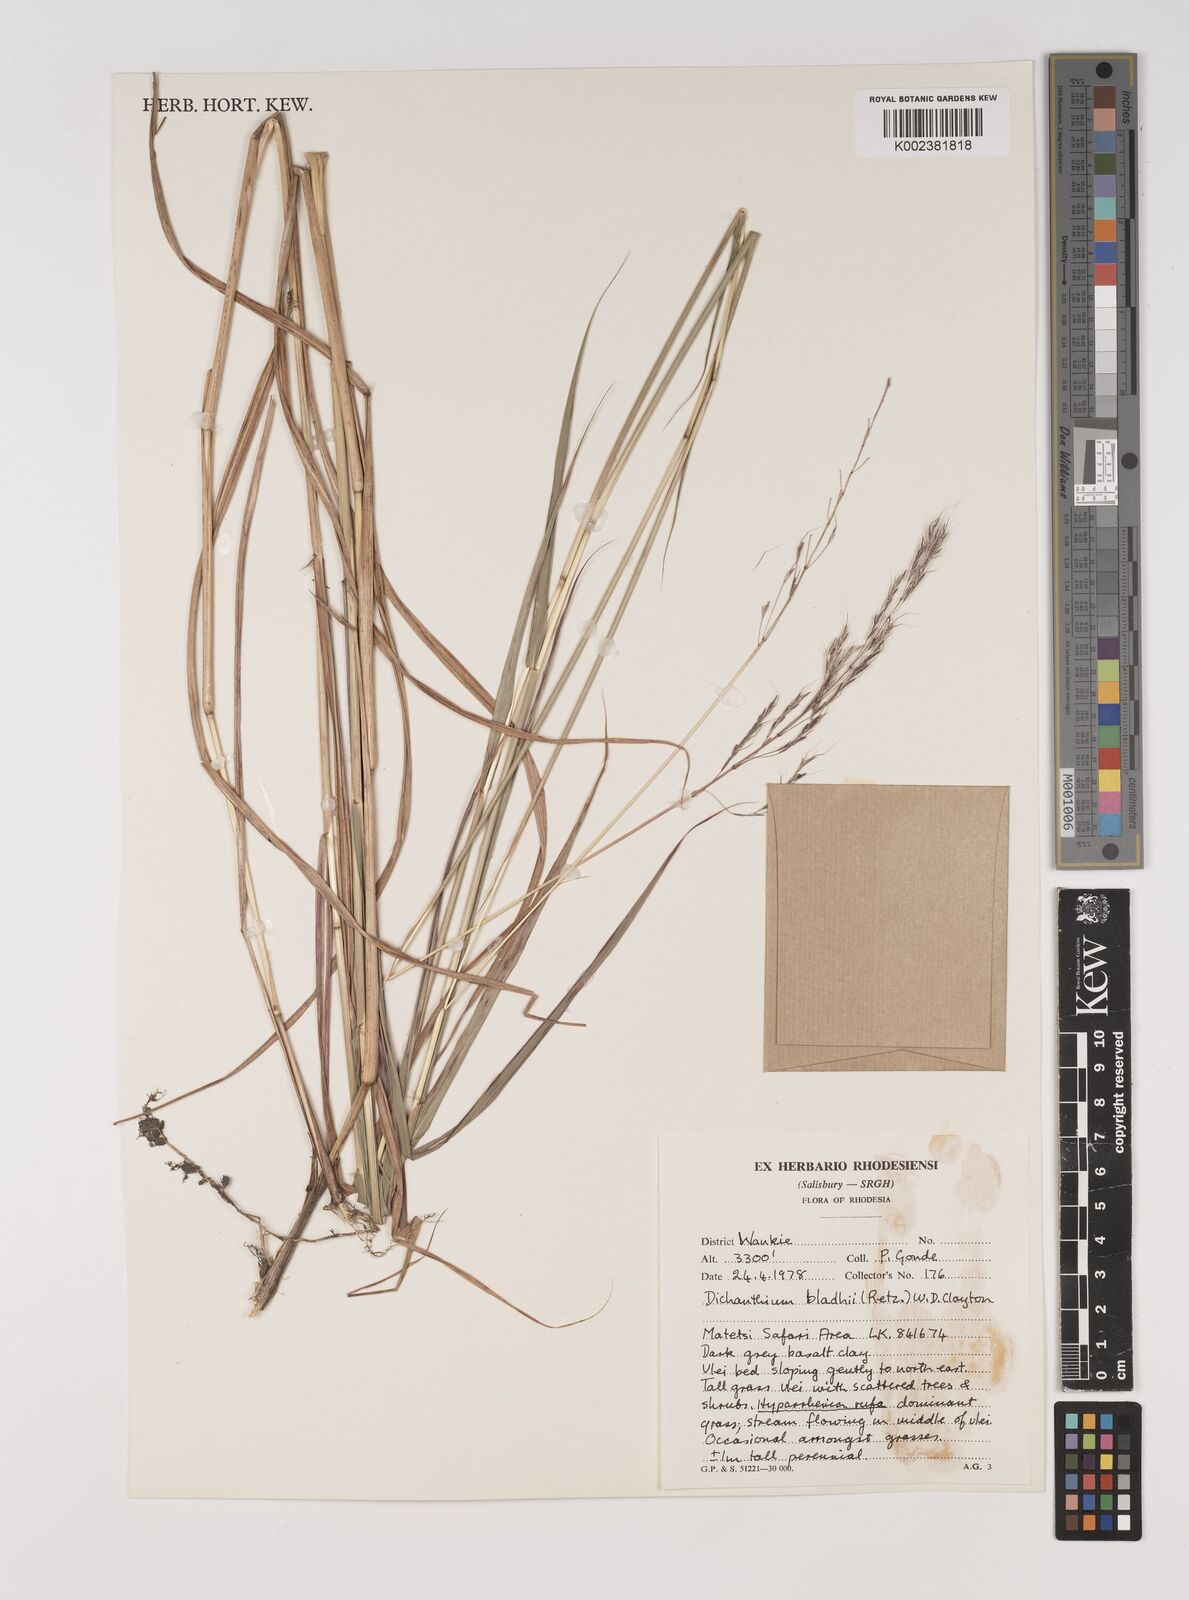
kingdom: Plantae
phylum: Tracheophyta
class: Liliopsida
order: Poales
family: Poaceae
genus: Bothriochloa
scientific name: Bothriochloa bladhii
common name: Caucasian bluestem
